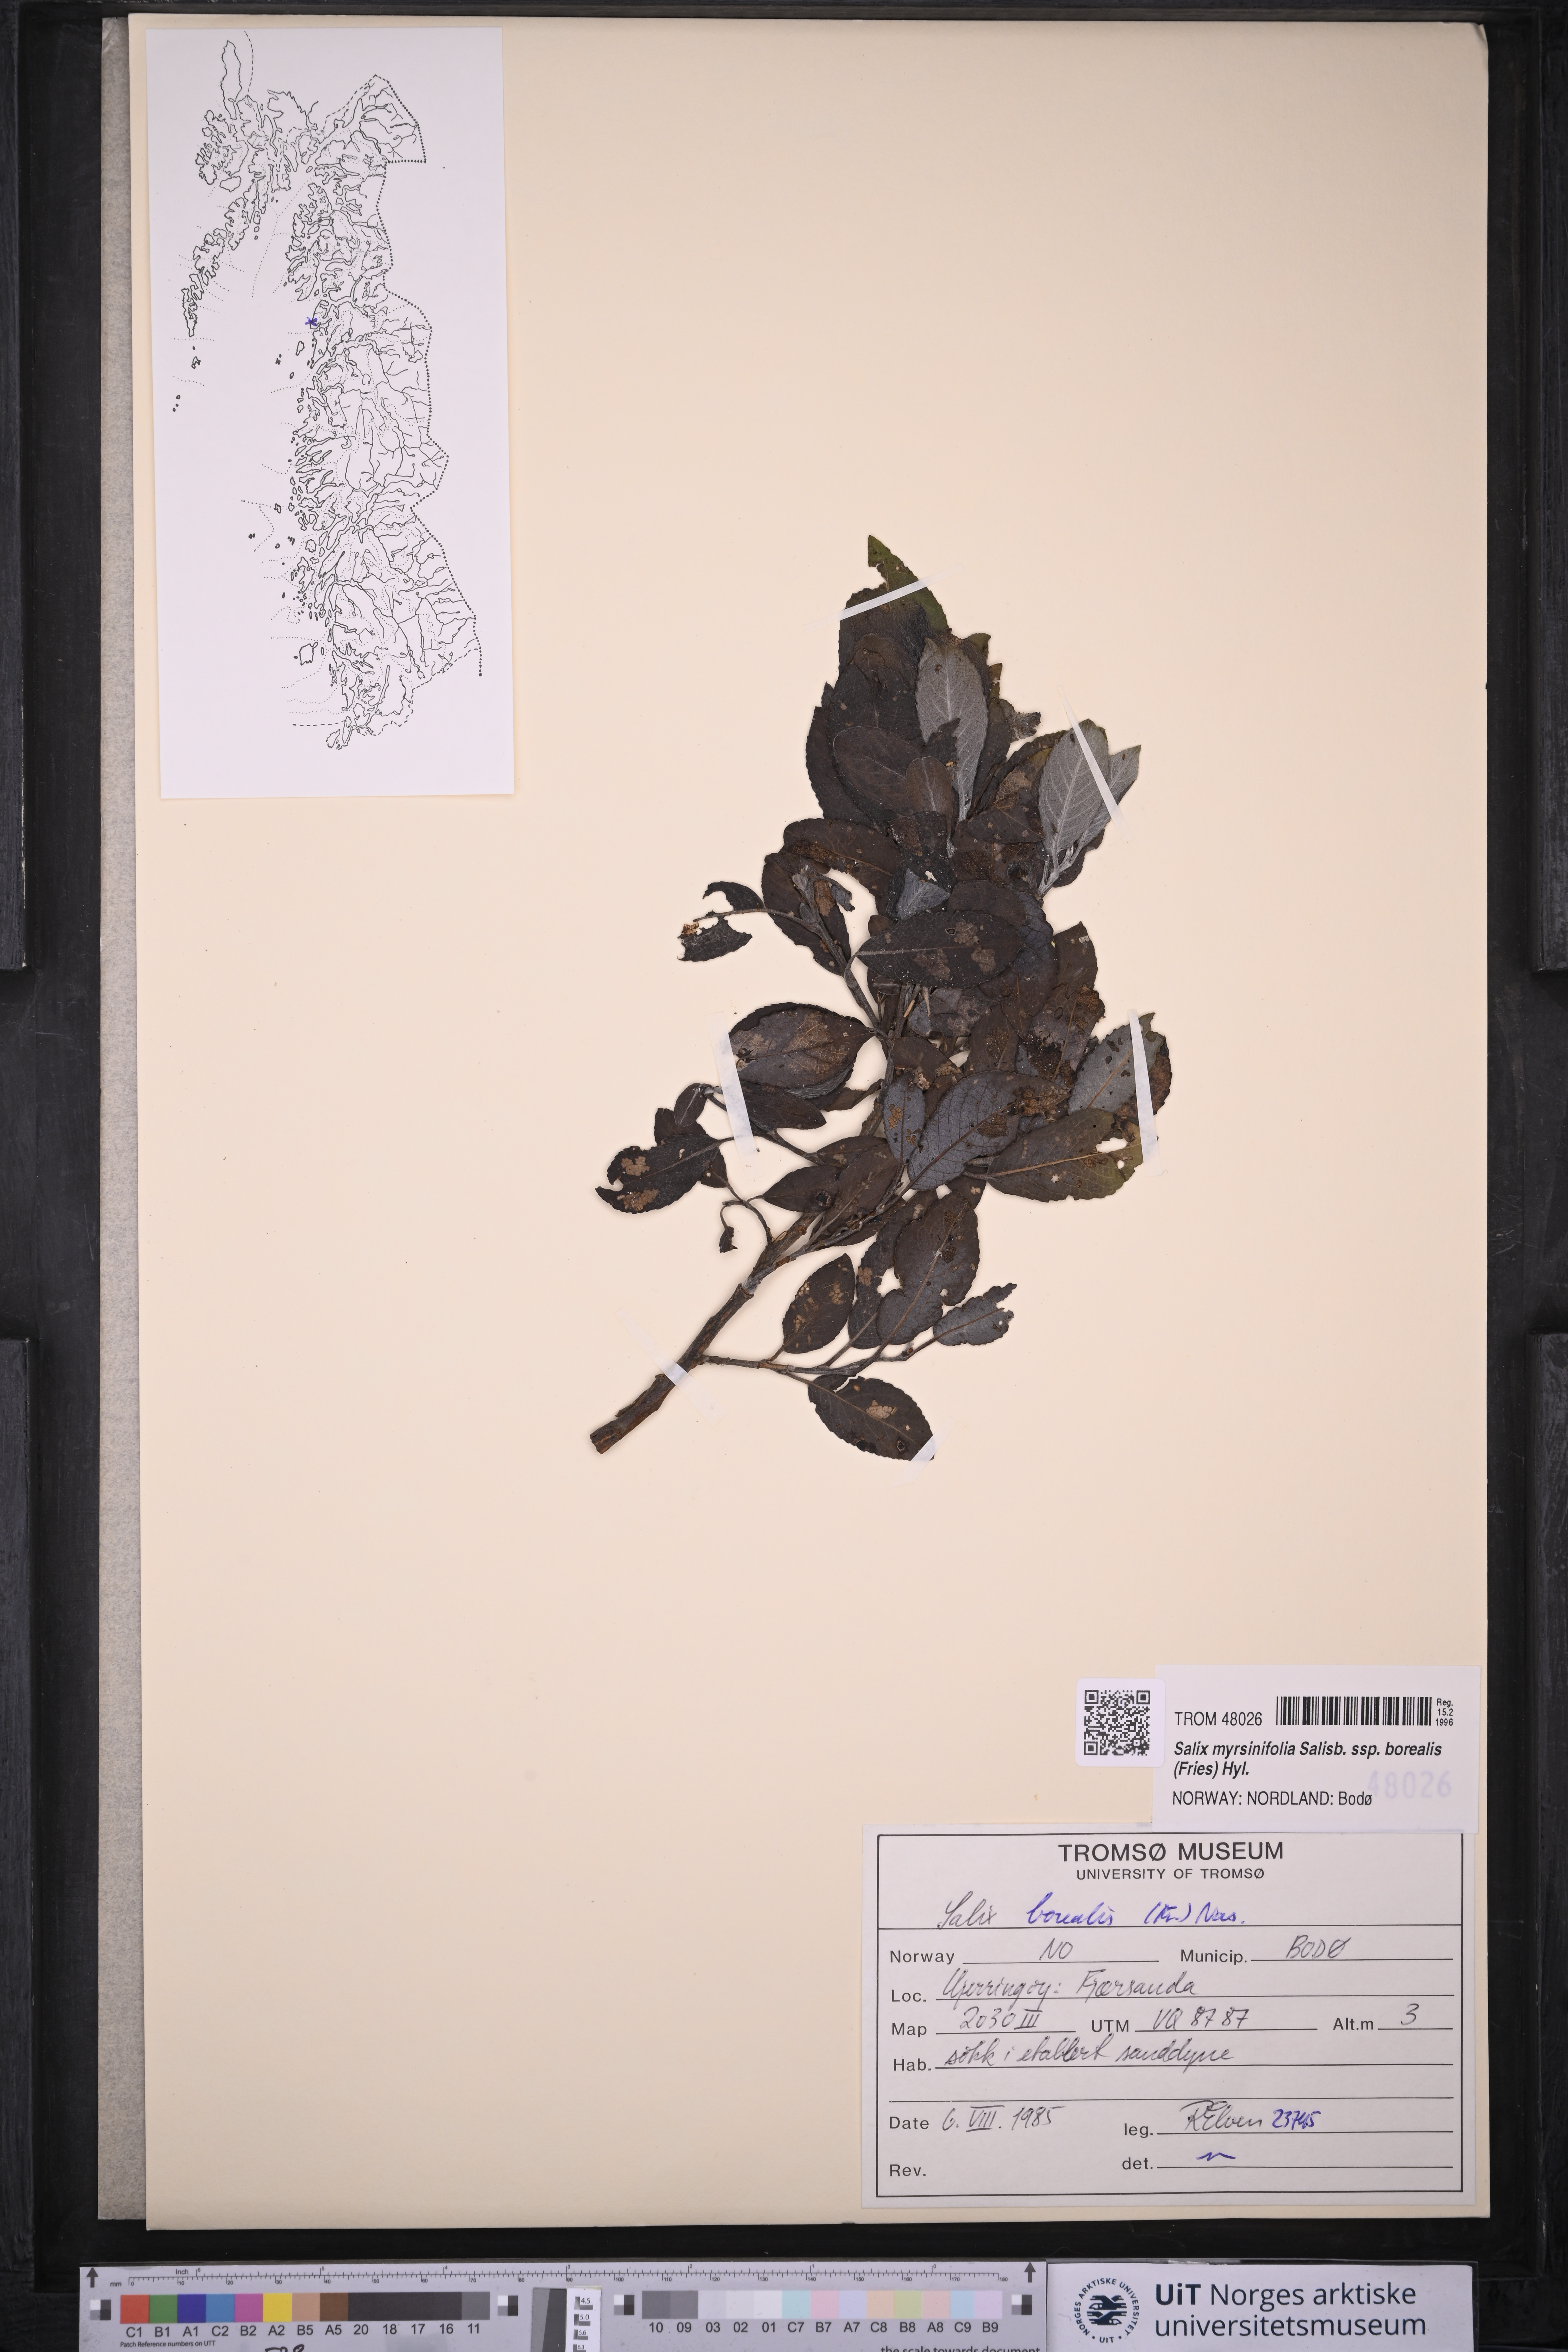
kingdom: Plantae
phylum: Tracheophyta
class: Magnoliopsida
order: Malpighiales
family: Salicaceae
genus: Salix
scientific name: Salix myrsinifolia
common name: Dark-leaved willow
